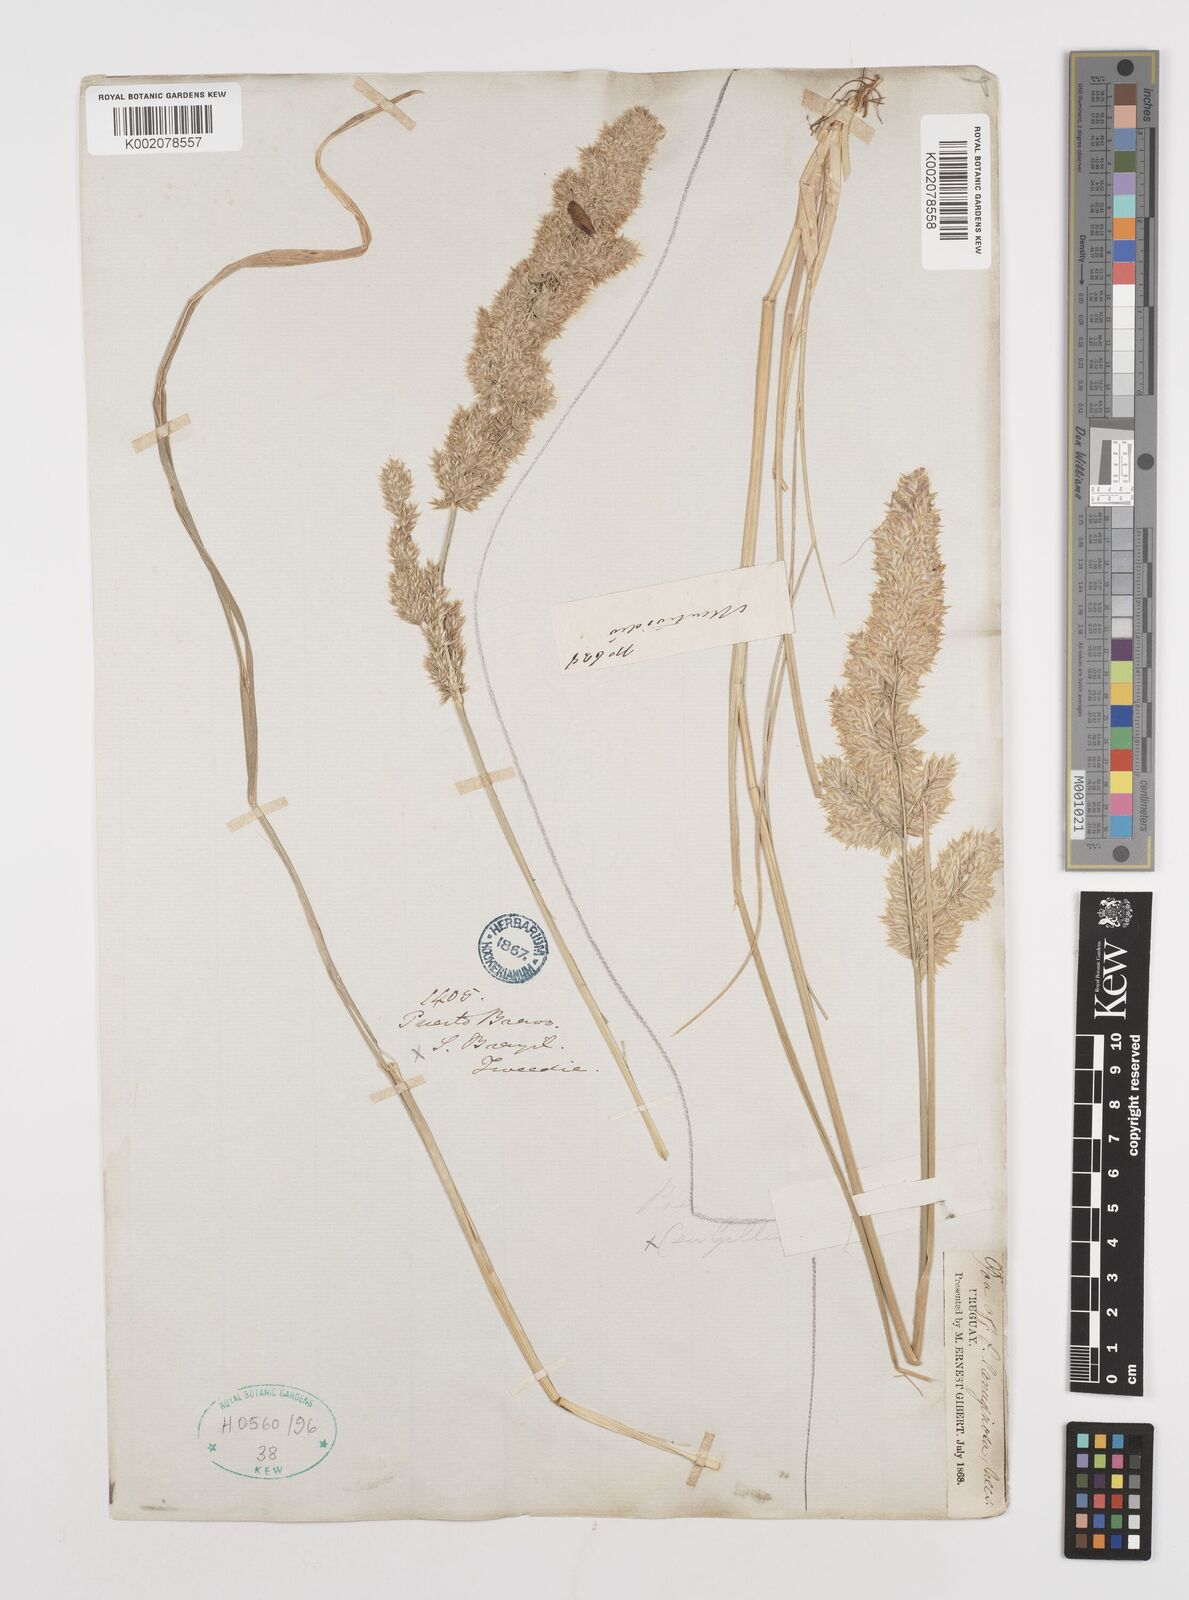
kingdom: Plantae
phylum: Tracheophyta
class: Liliopsida
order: Poales
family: Poaceae
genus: Poa
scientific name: Poa lanuginosa
